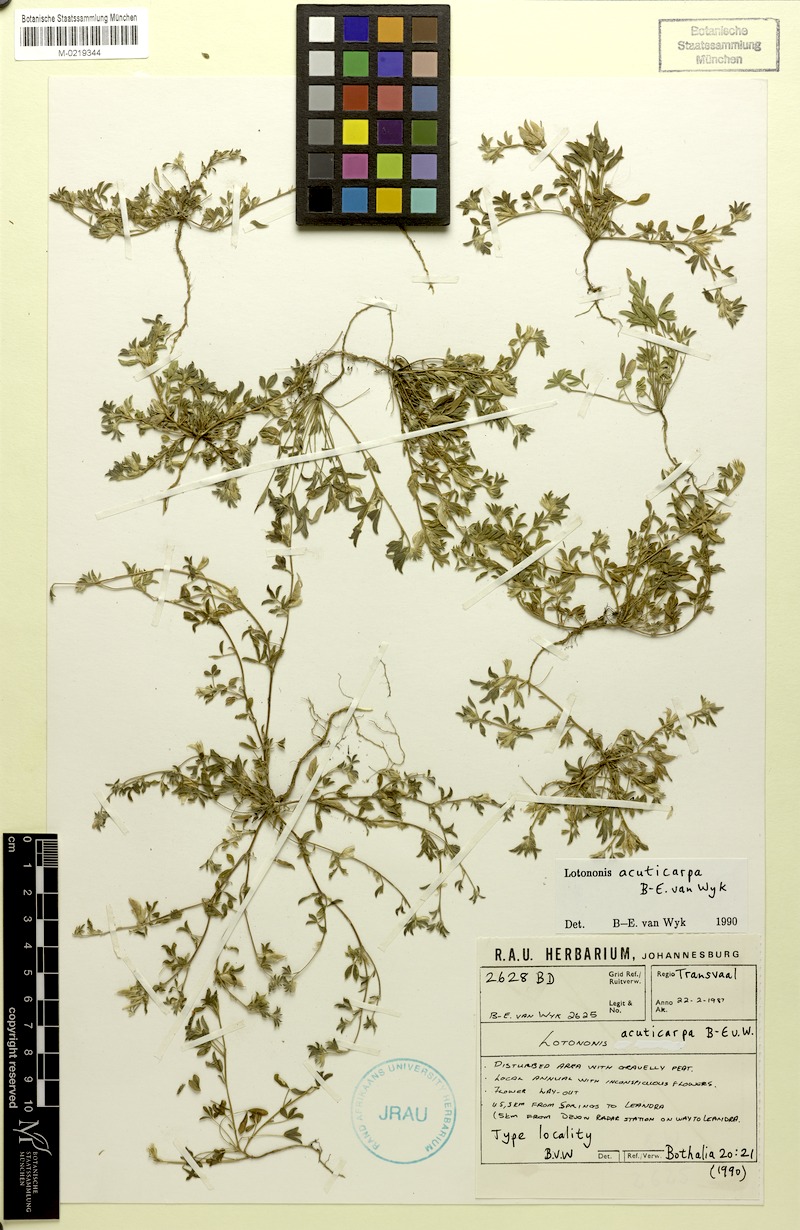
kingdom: Plantae
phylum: Tracheophyta
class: Magnoliopsida
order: Fabales
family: Fabaceae
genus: Leobordea
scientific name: Leobordea acuticarpa
